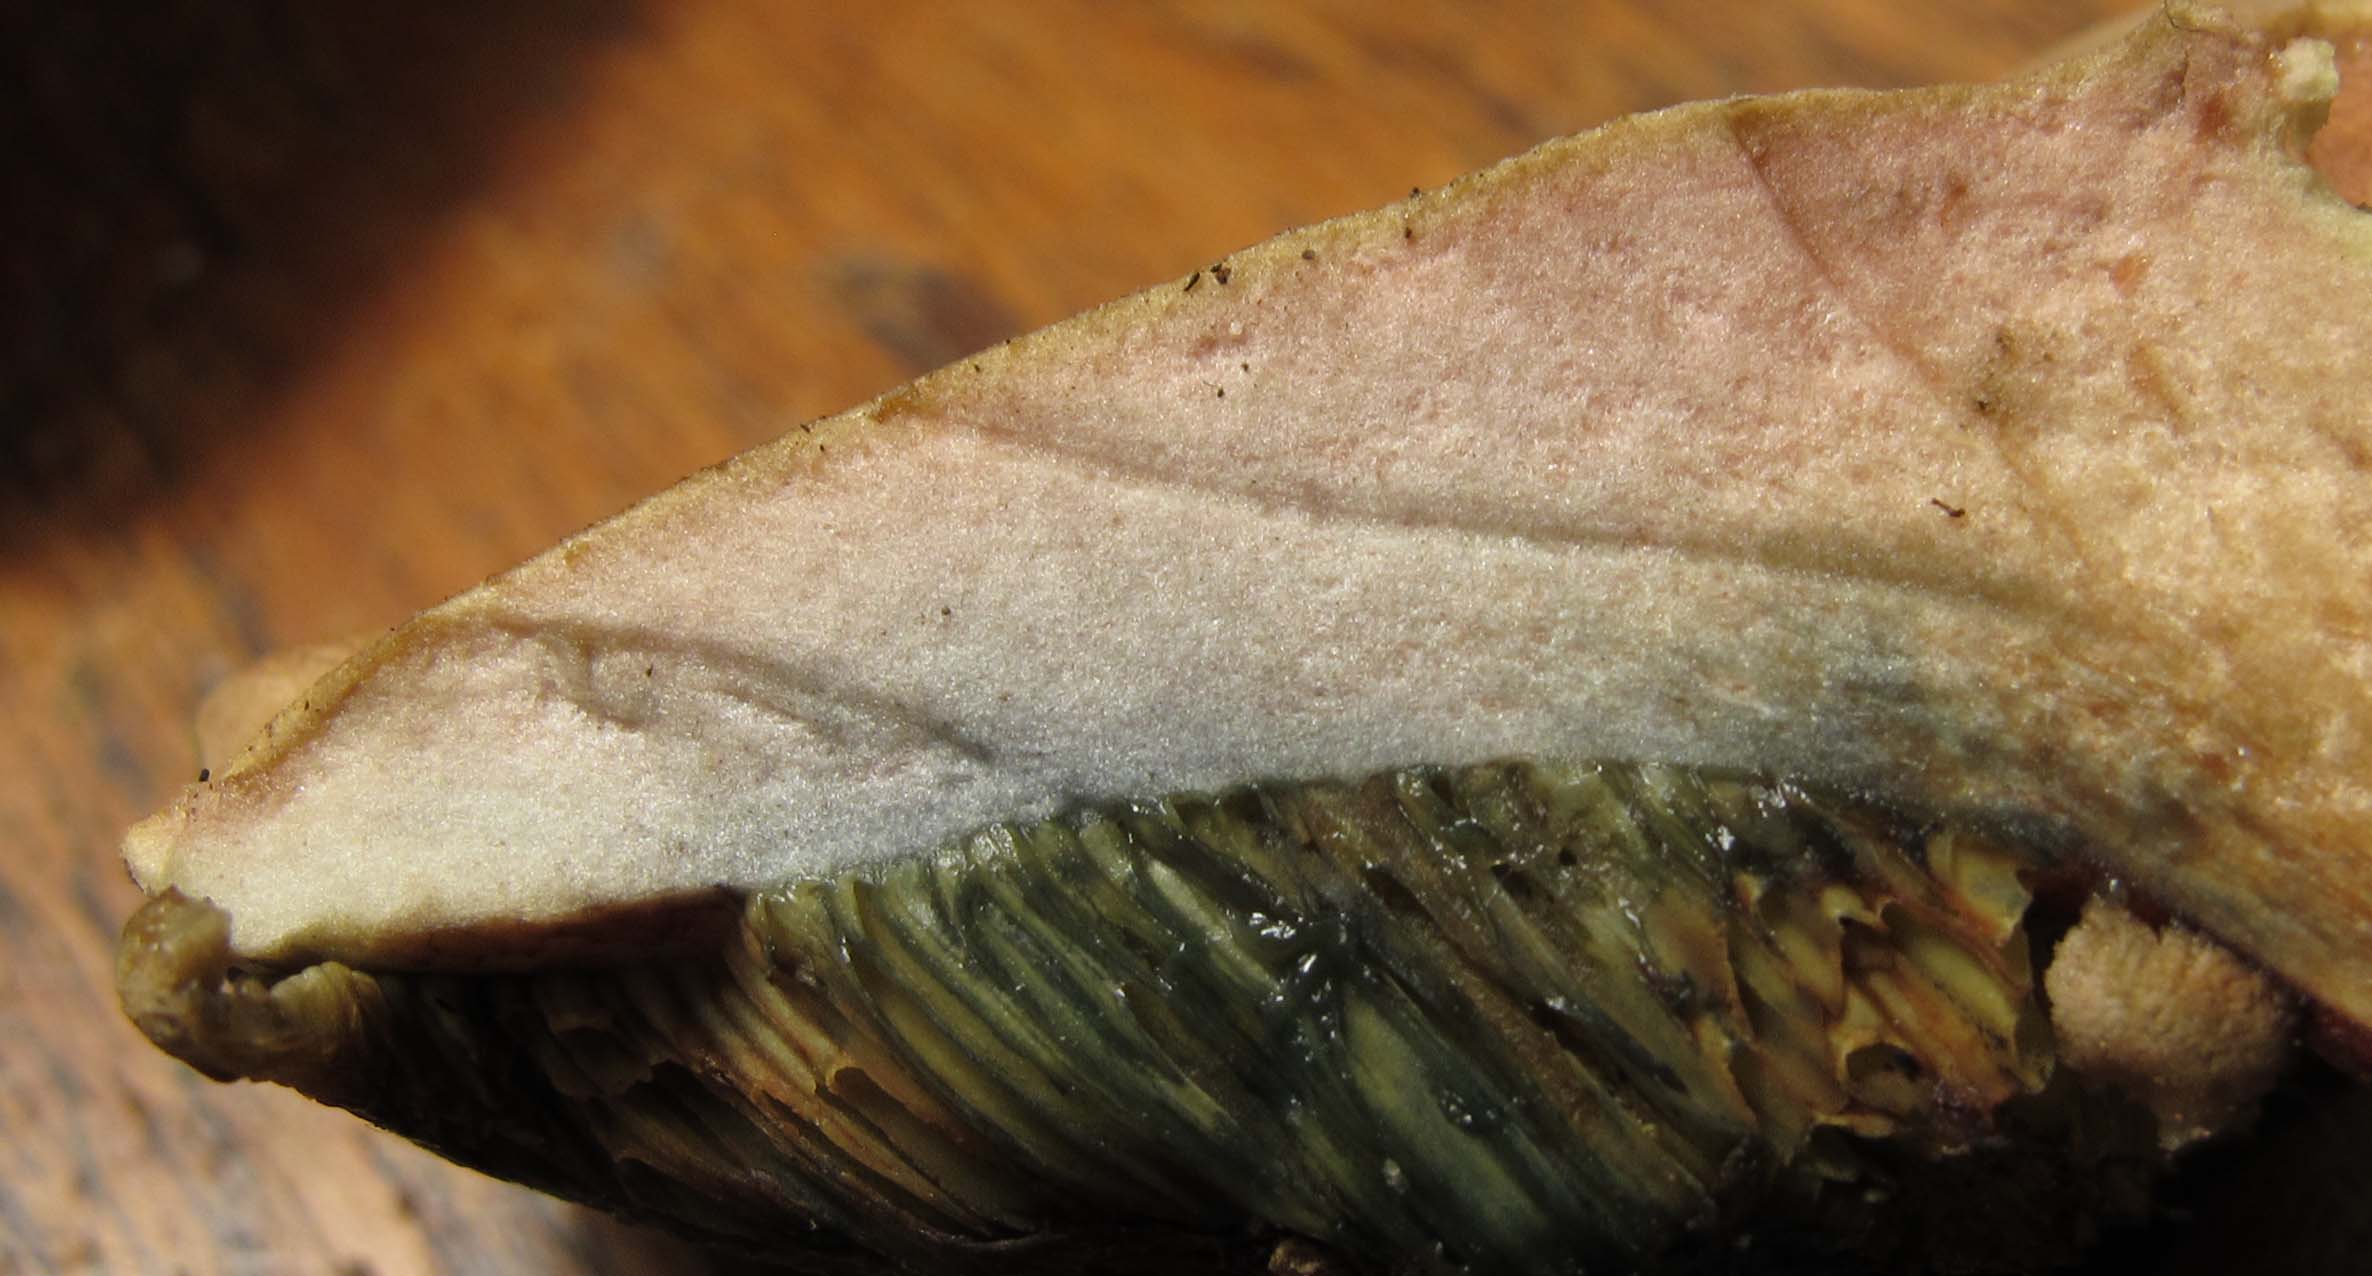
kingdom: Fungi
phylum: Basidiomycota
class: Agaricomycetes
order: Boletales
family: Boletaceae
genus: Hortiboletus
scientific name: Hortiboletus bubalinus
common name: aurora-rørhat
